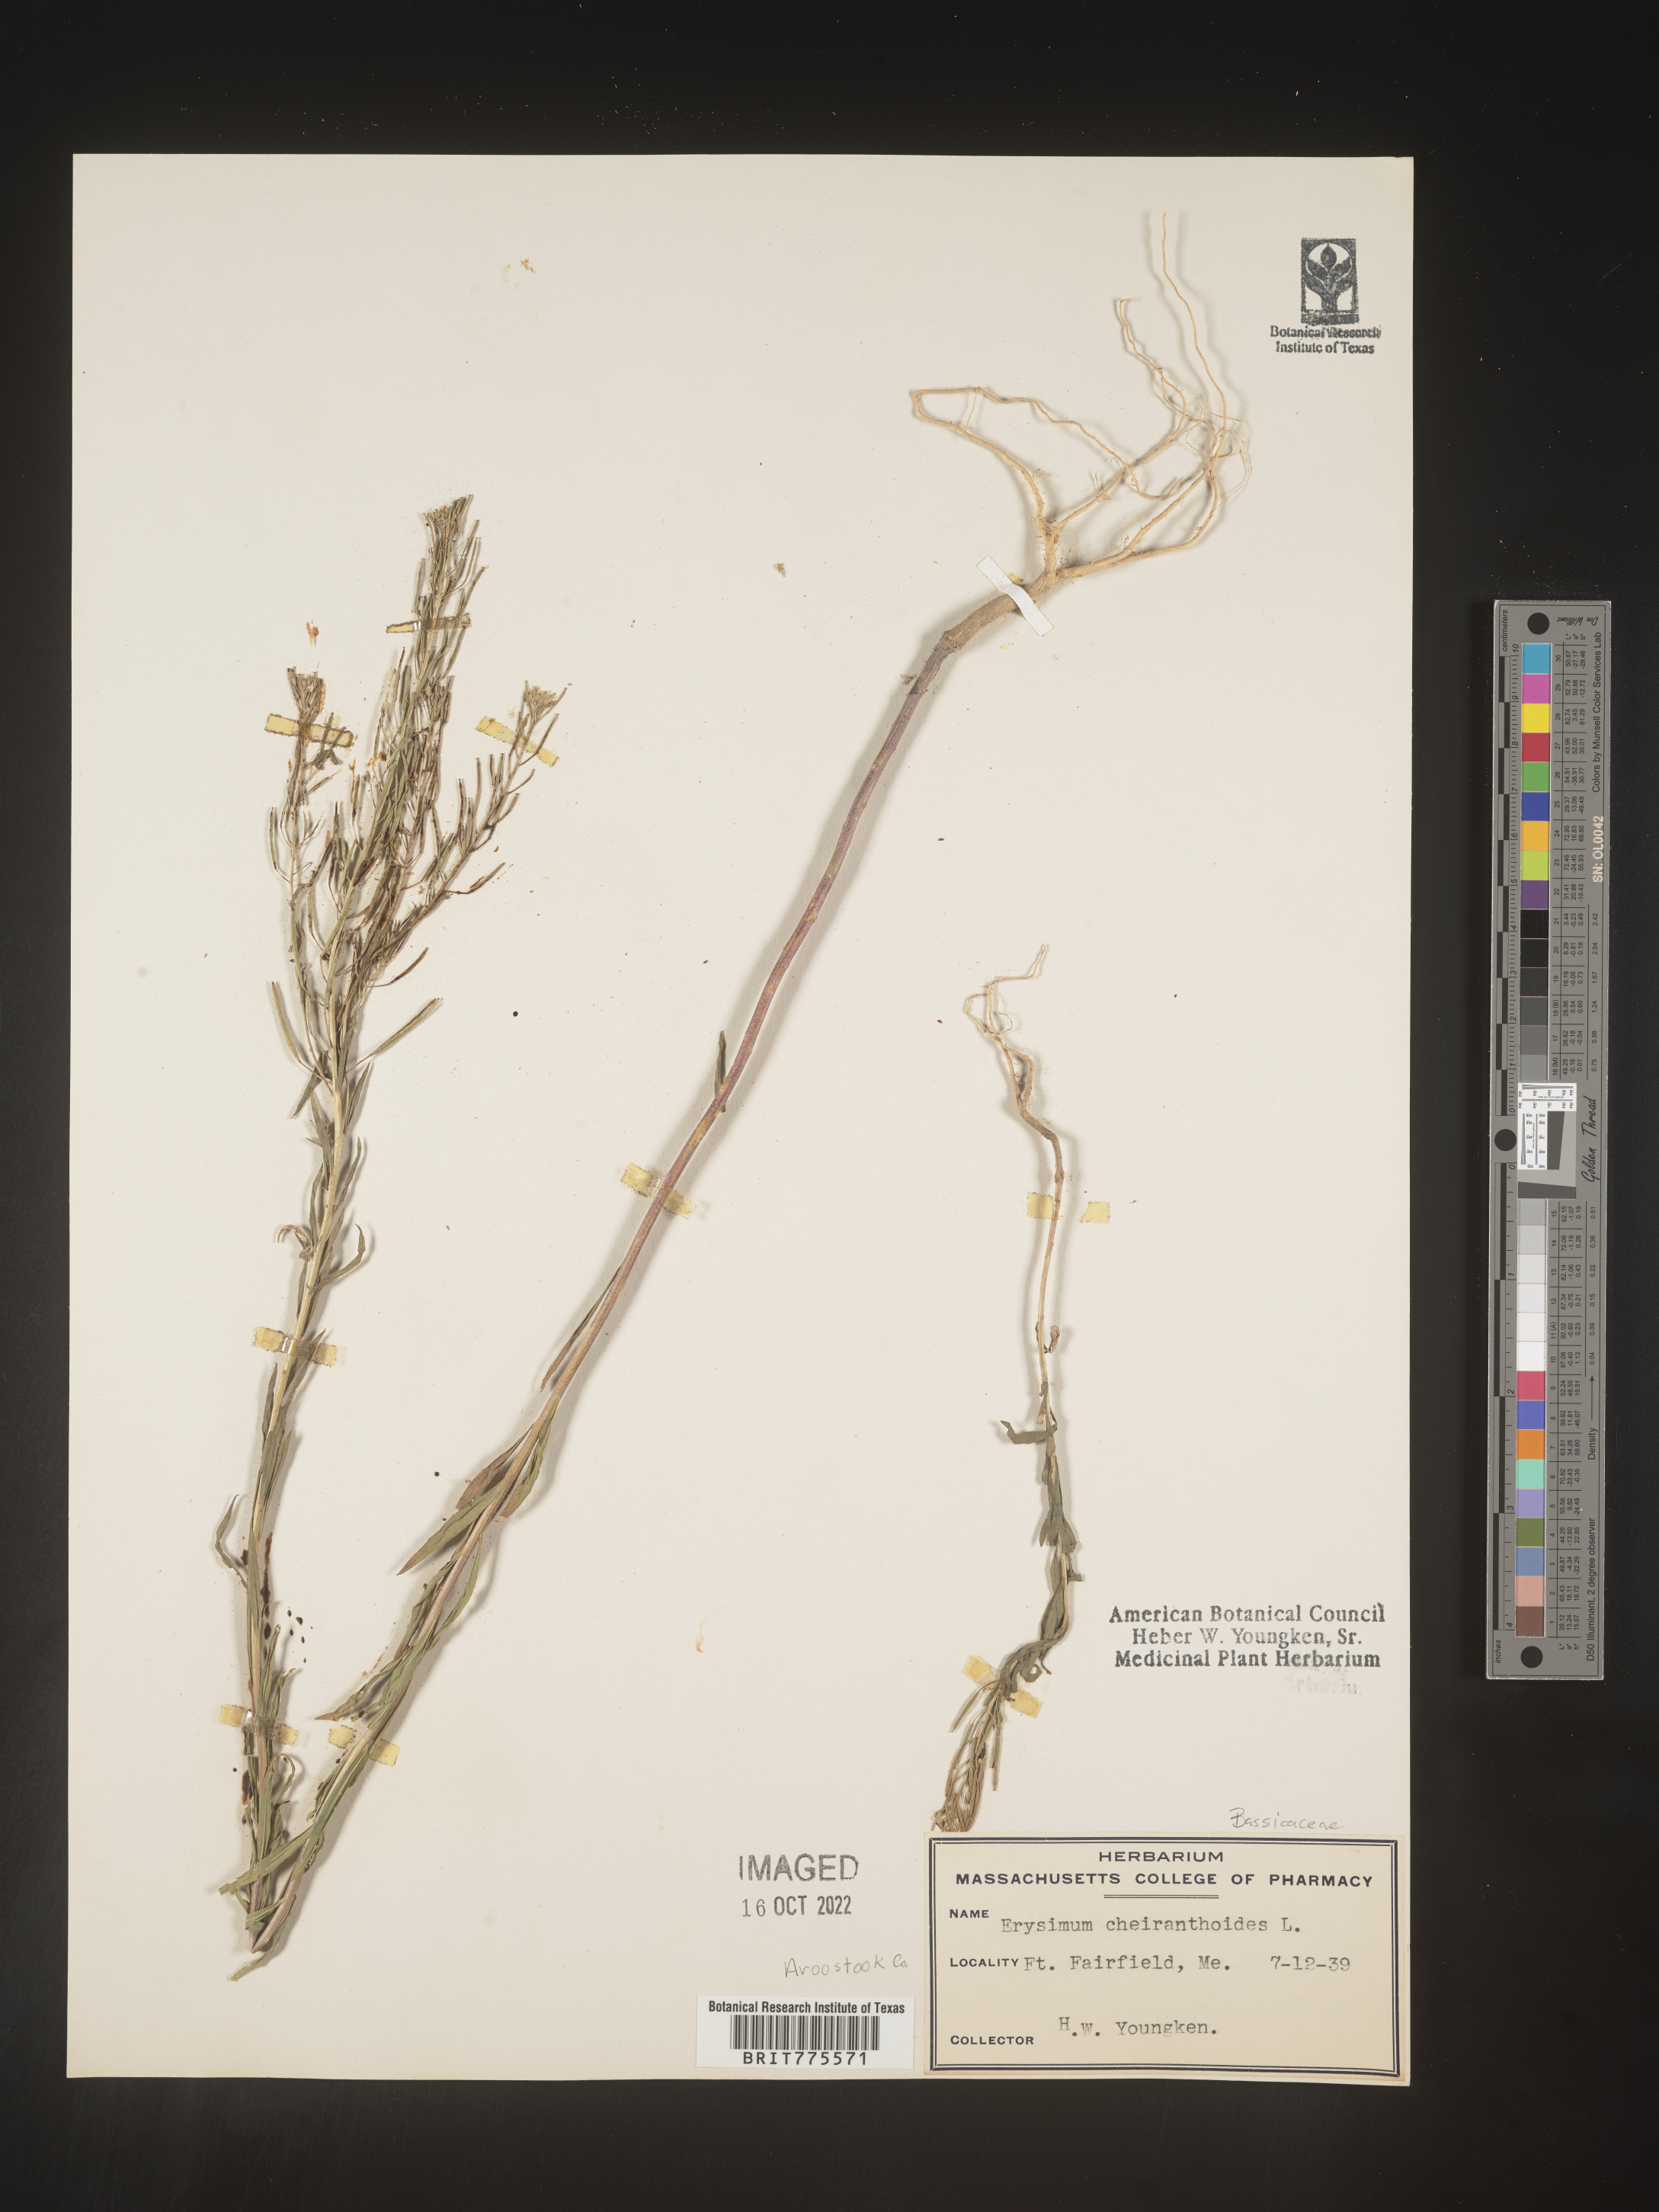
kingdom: Plantae
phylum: Tracheophyta
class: Magnoliopsida
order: Brassicales
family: Brassicaceae
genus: Erysimum
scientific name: Erysimum cheiranthoides
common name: Treacle mustard
